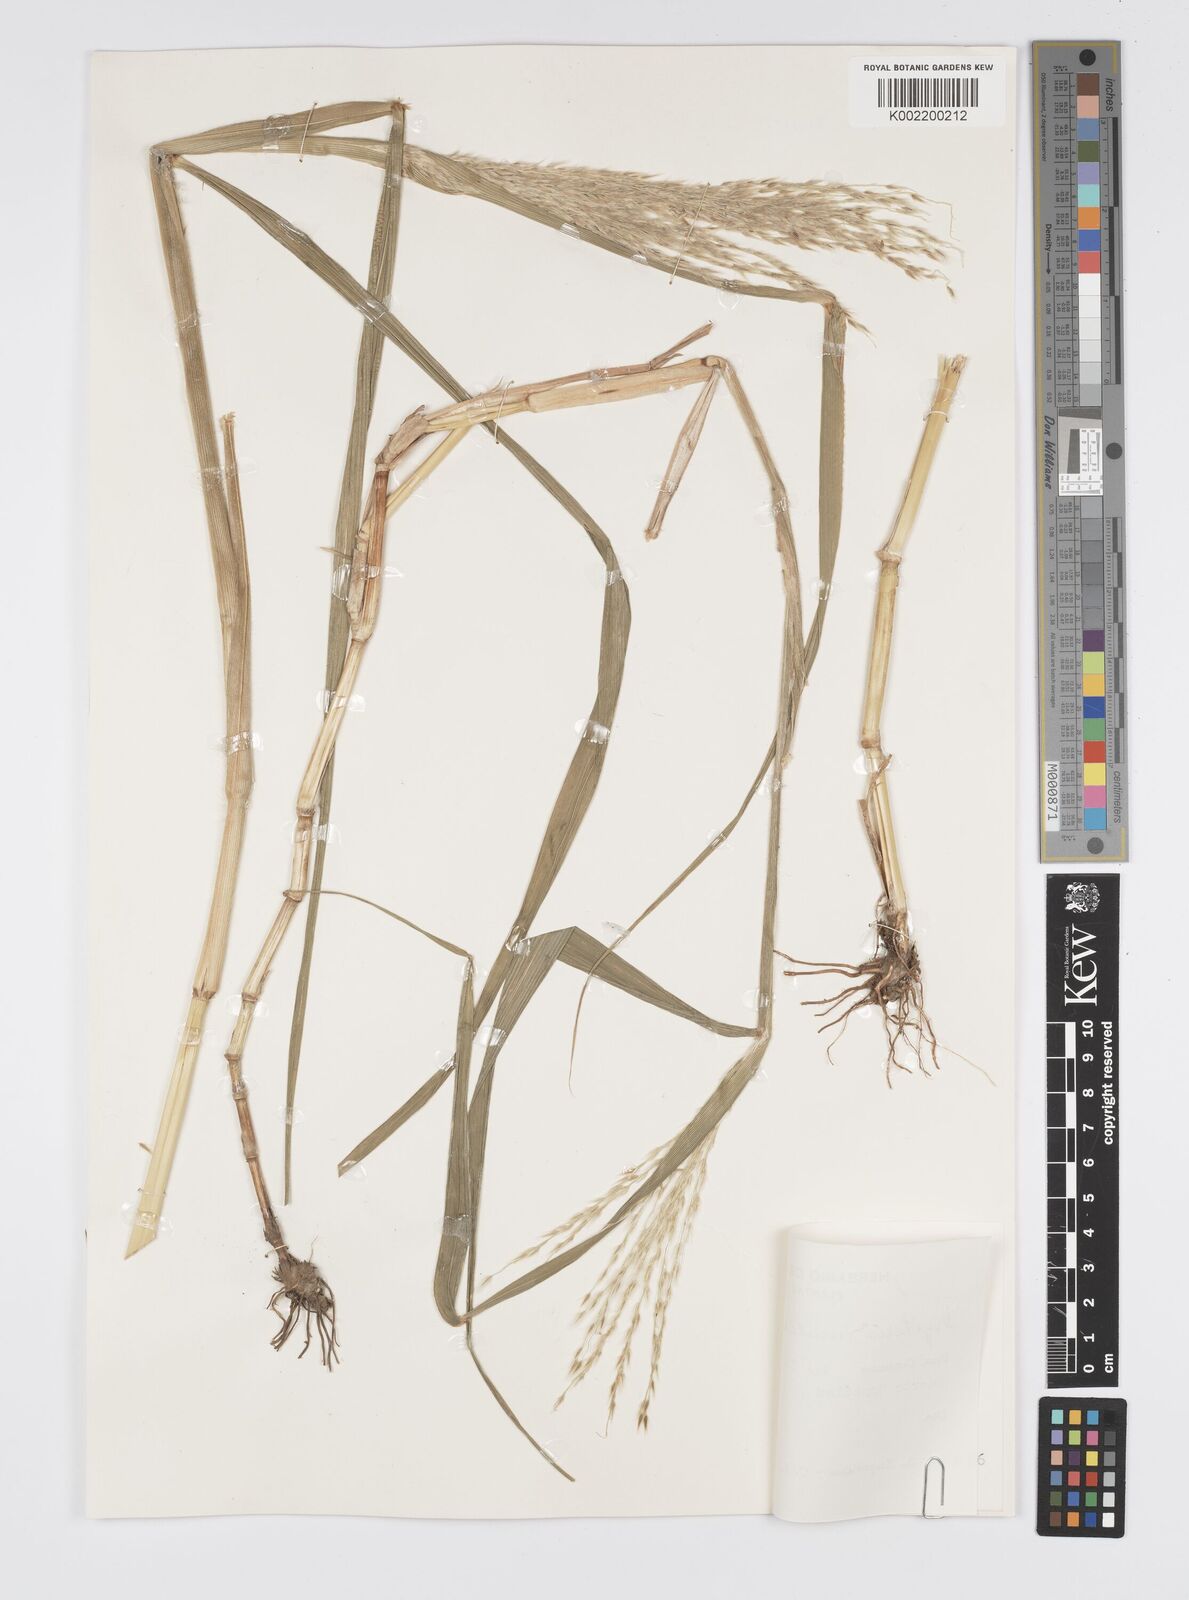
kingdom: Plantae
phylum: Tracheophyta
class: Liliopsida
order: Poales
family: Poaceae
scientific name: Poaceae
